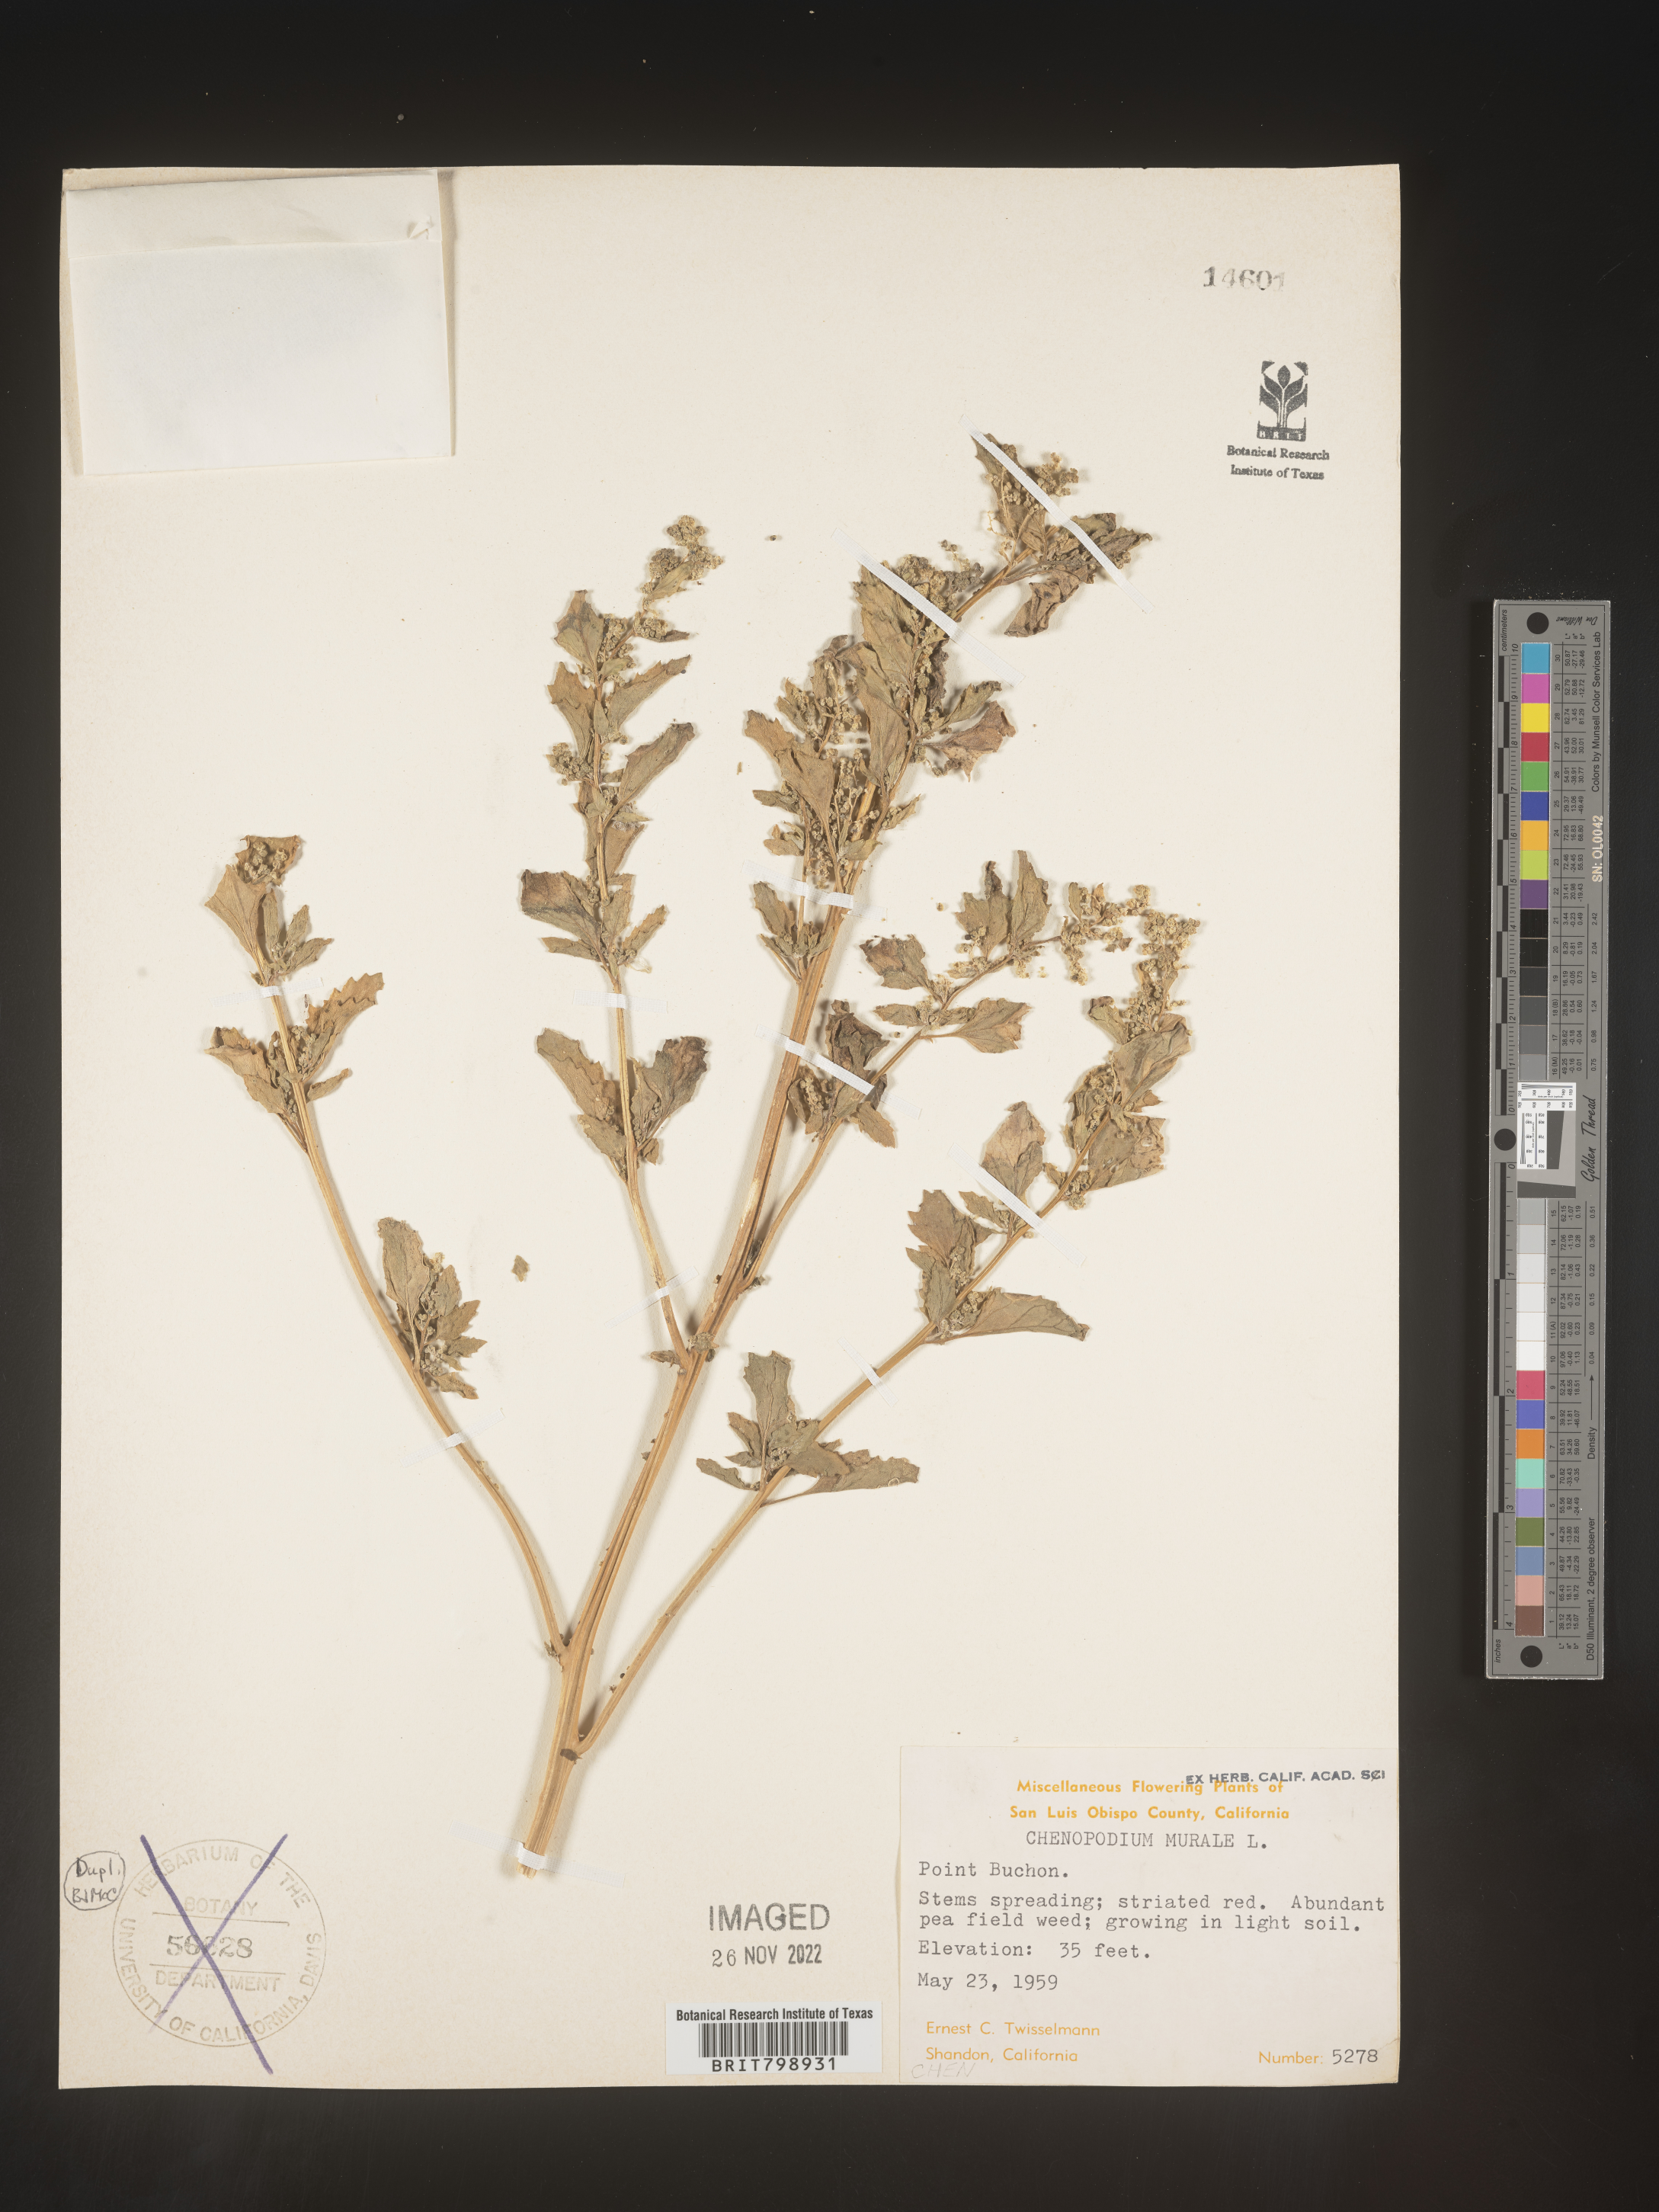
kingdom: Plantae
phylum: Tracheophyta
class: Magnoliopsida
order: Caryophyllales
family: Amaranthaceae
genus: Chenopodiastrum
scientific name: Chenopodiastrum murale
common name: Sowbane
